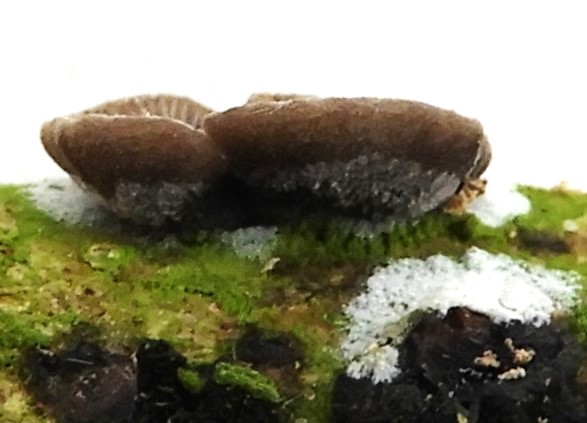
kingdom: Fungi
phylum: Basidiomycota
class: Agaricomycetes
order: Agaricales
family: Pleurotaceae
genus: Resupinatus
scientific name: Resupinatus trichotis
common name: mørkfiltet barkhat
